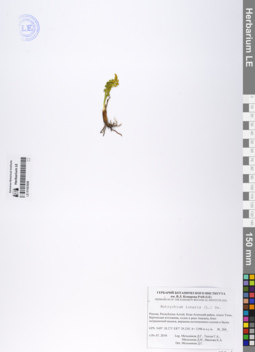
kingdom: Plantae
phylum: Tracheophyta
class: Polypodiopsida
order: Ophioglossales
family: Ophioglossaceae
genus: Botrychium
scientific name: Botrychium lunaria
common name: Moonwort
